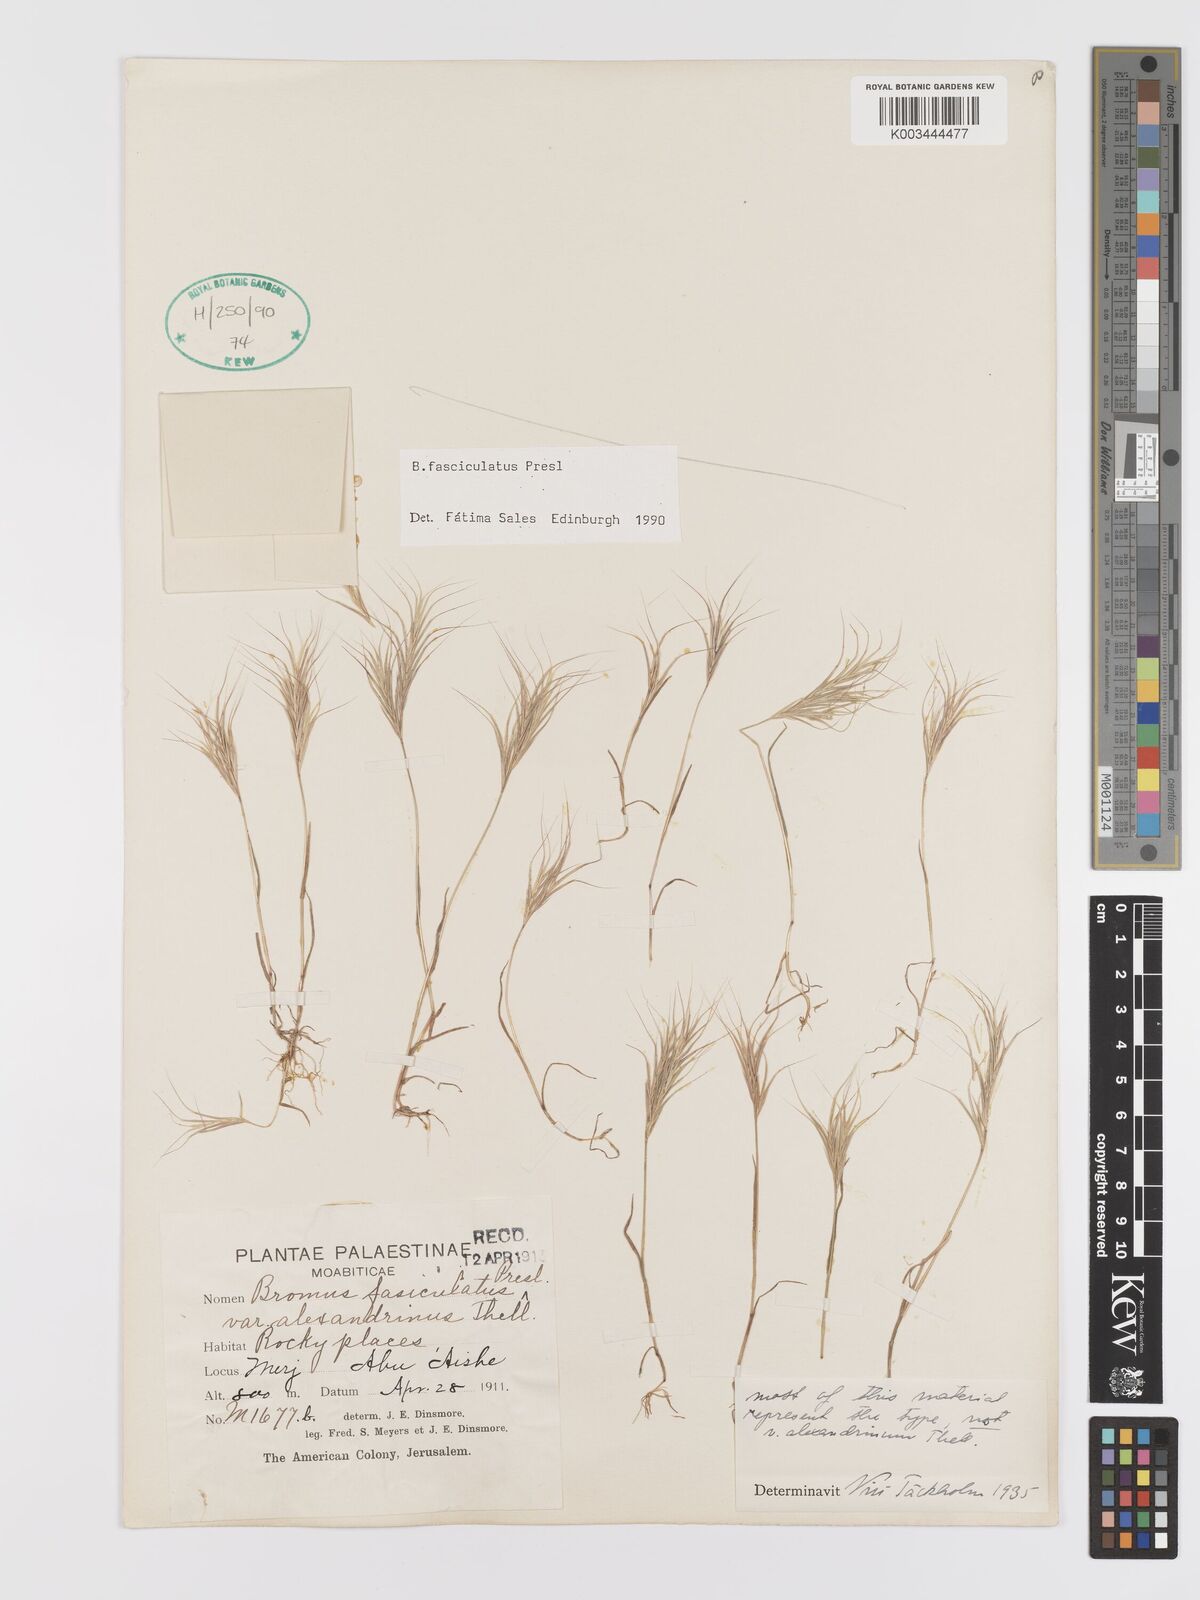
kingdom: Plantae
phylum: Tracheophyta
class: Liliopsida
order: Poales
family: Poaceae
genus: Bromus
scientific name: Bromus fasciculatus
